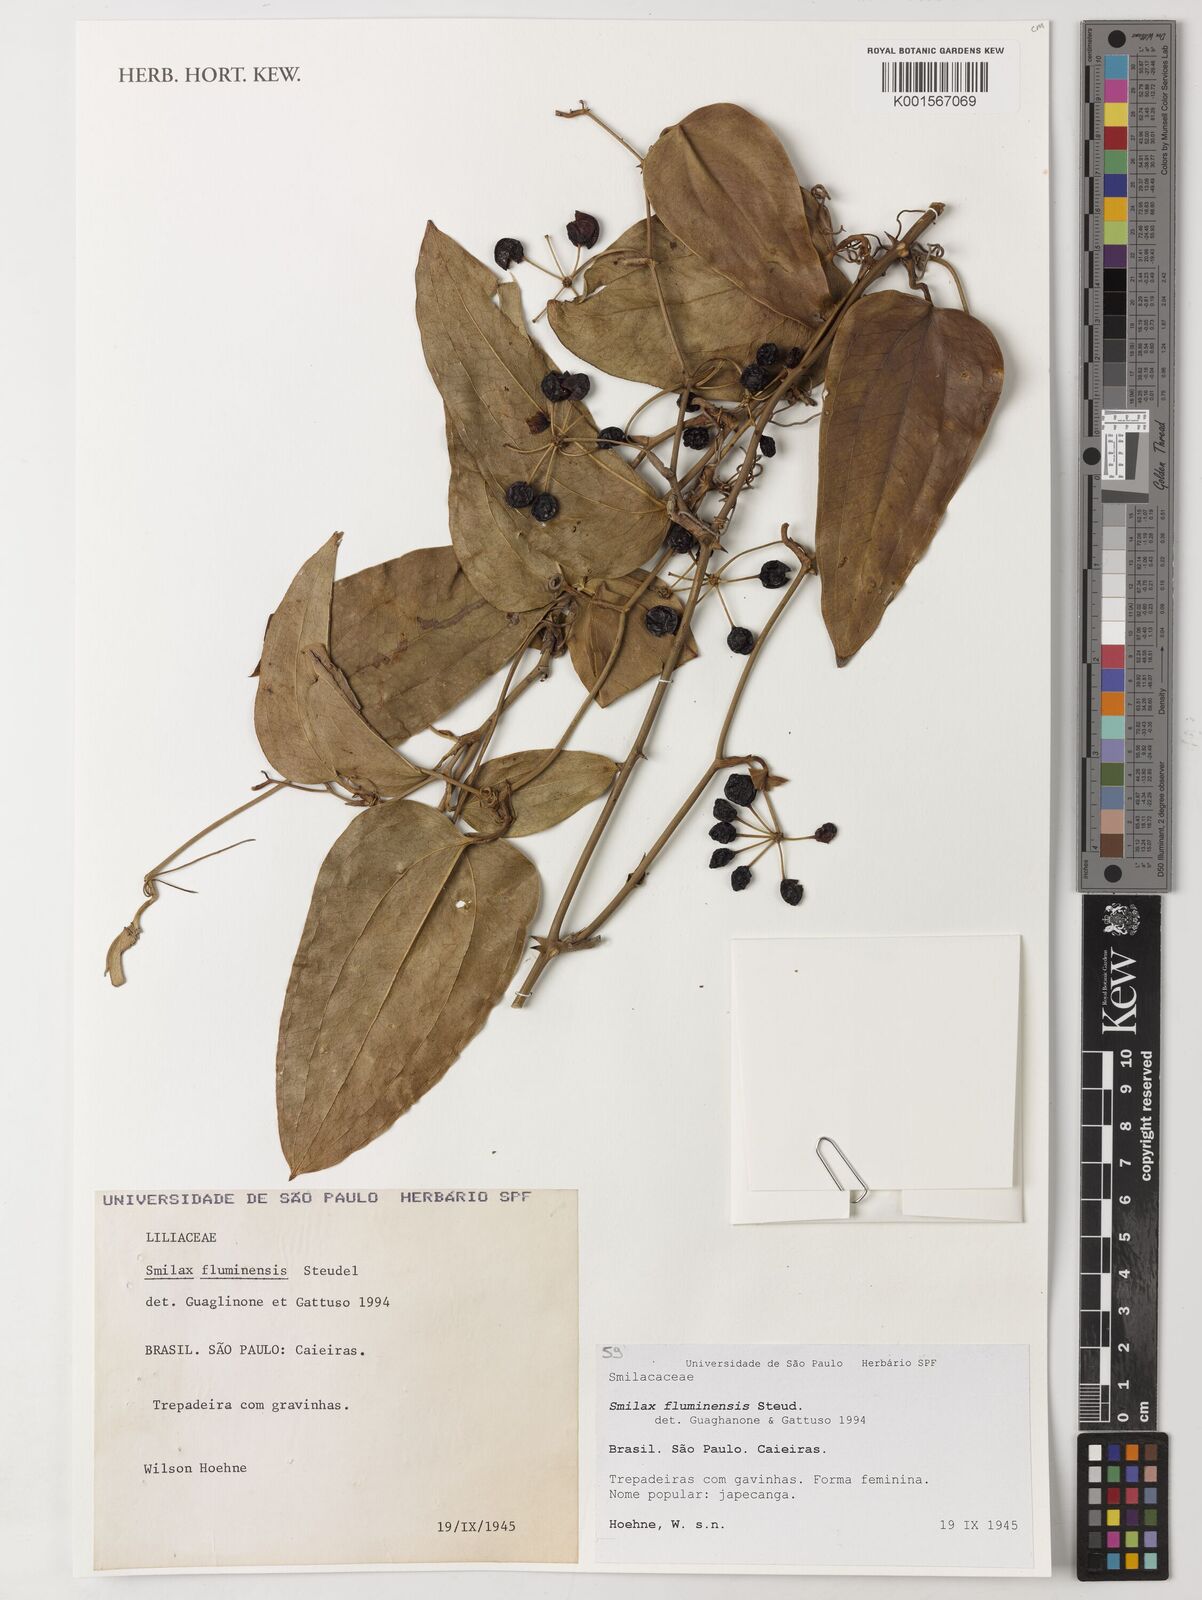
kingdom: Plantae
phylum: Tracheophyta
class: Liliopsida
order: Liliales
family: Smilacaceae
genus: Smilax
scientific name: Smilax fluminensis
